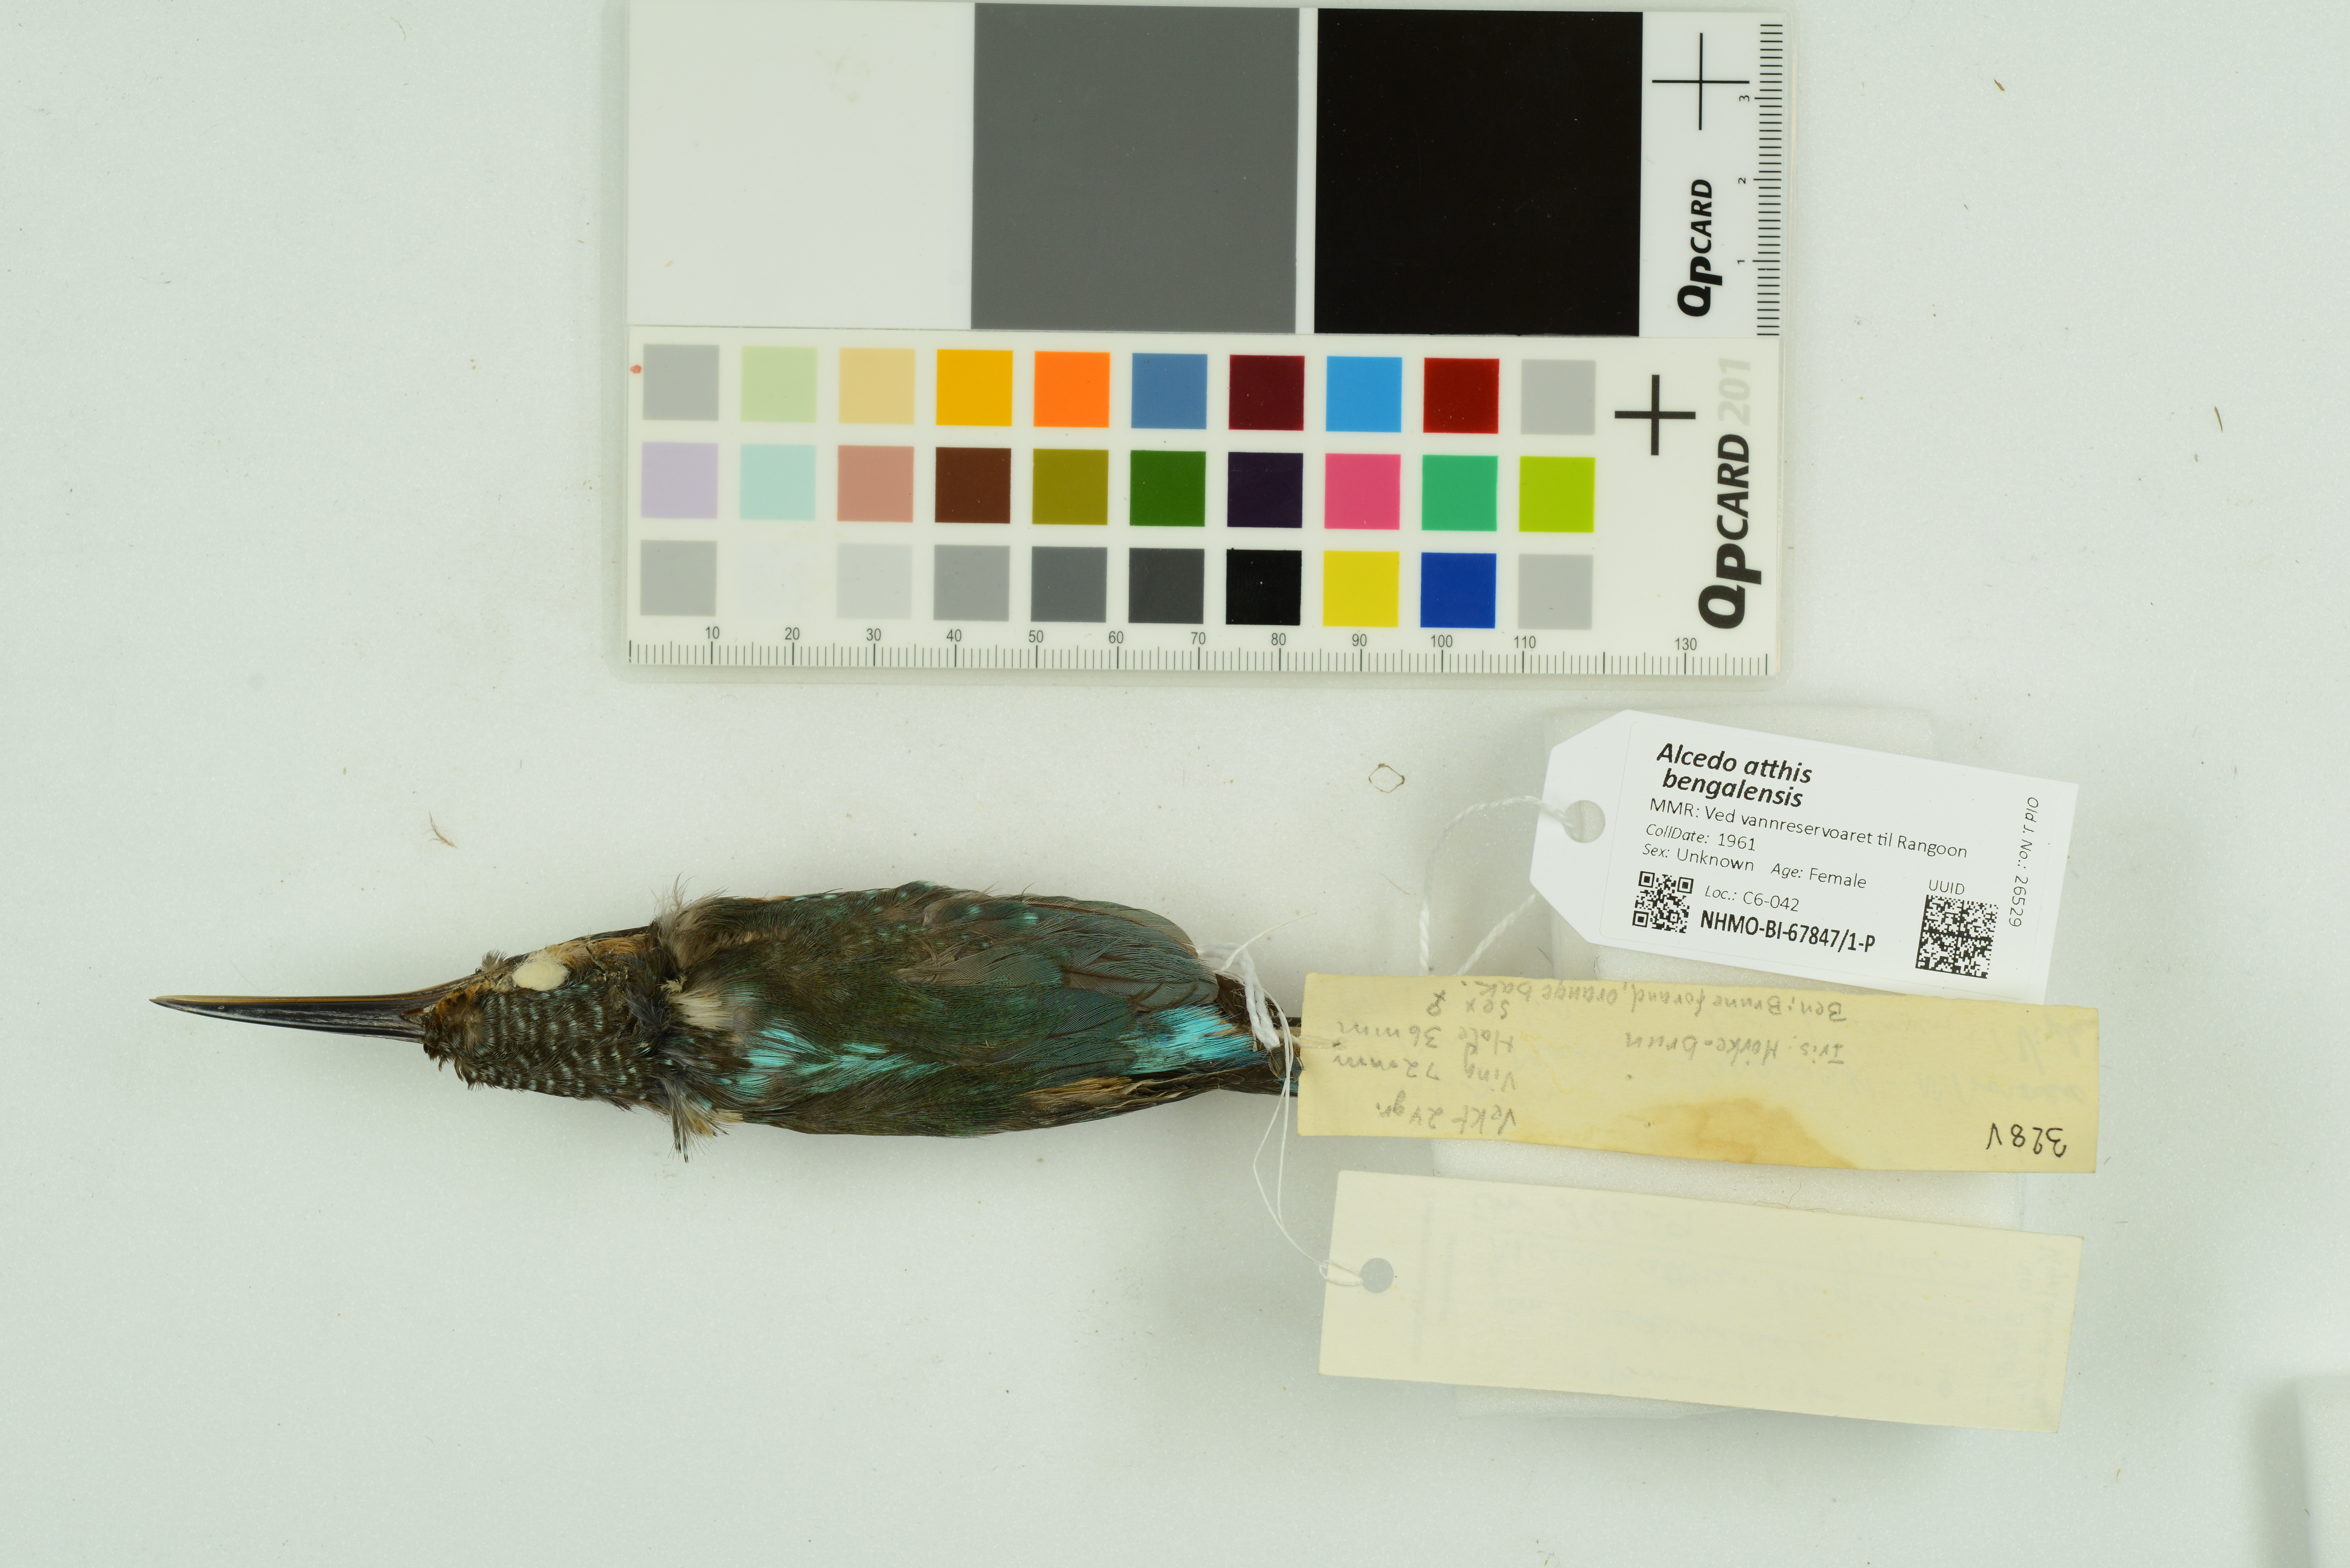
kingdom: Animalia
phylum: Chordata
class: Aves
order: Coraciiformes
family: Alcedinidae
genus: Alcedo
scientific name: Alcedo atthis
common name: Common kingfisher
